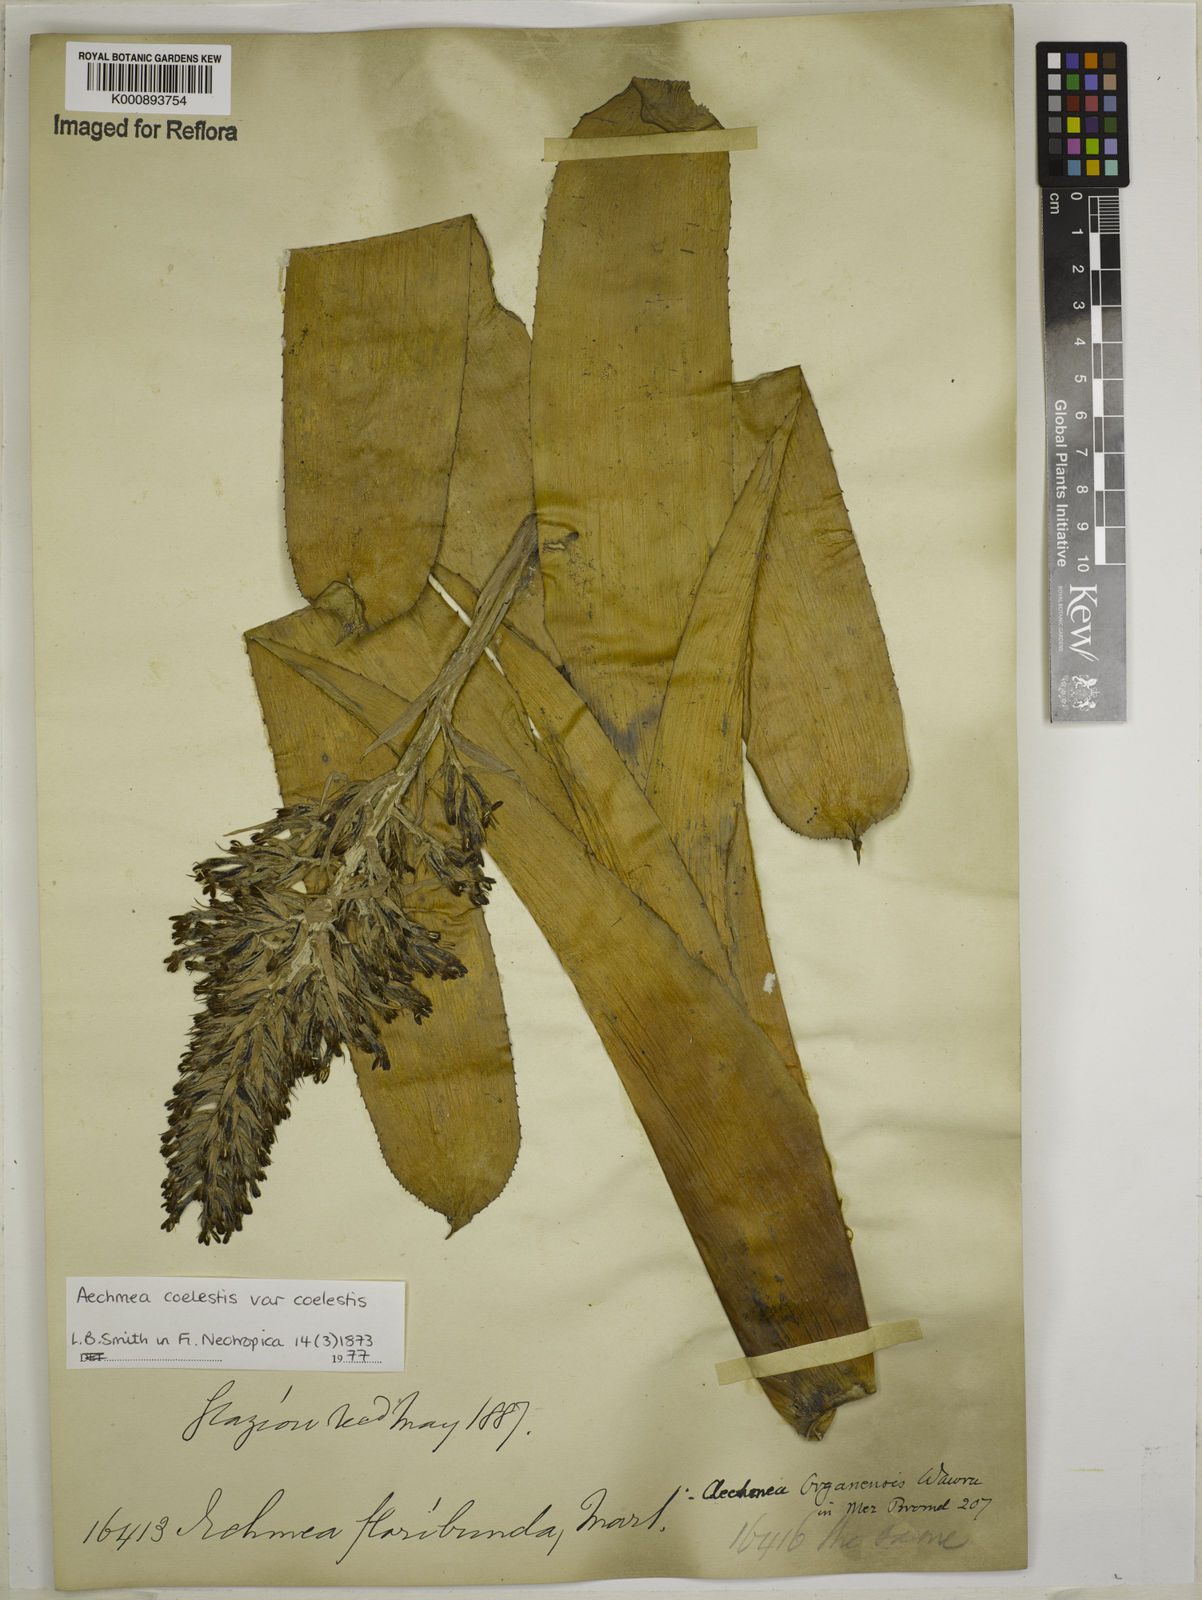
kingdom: Plantae
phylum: Tracheophyta
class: Liliopsida
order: Poales
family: Bromeliaceae
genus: Aechmea
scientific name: Aechmea coelestis
